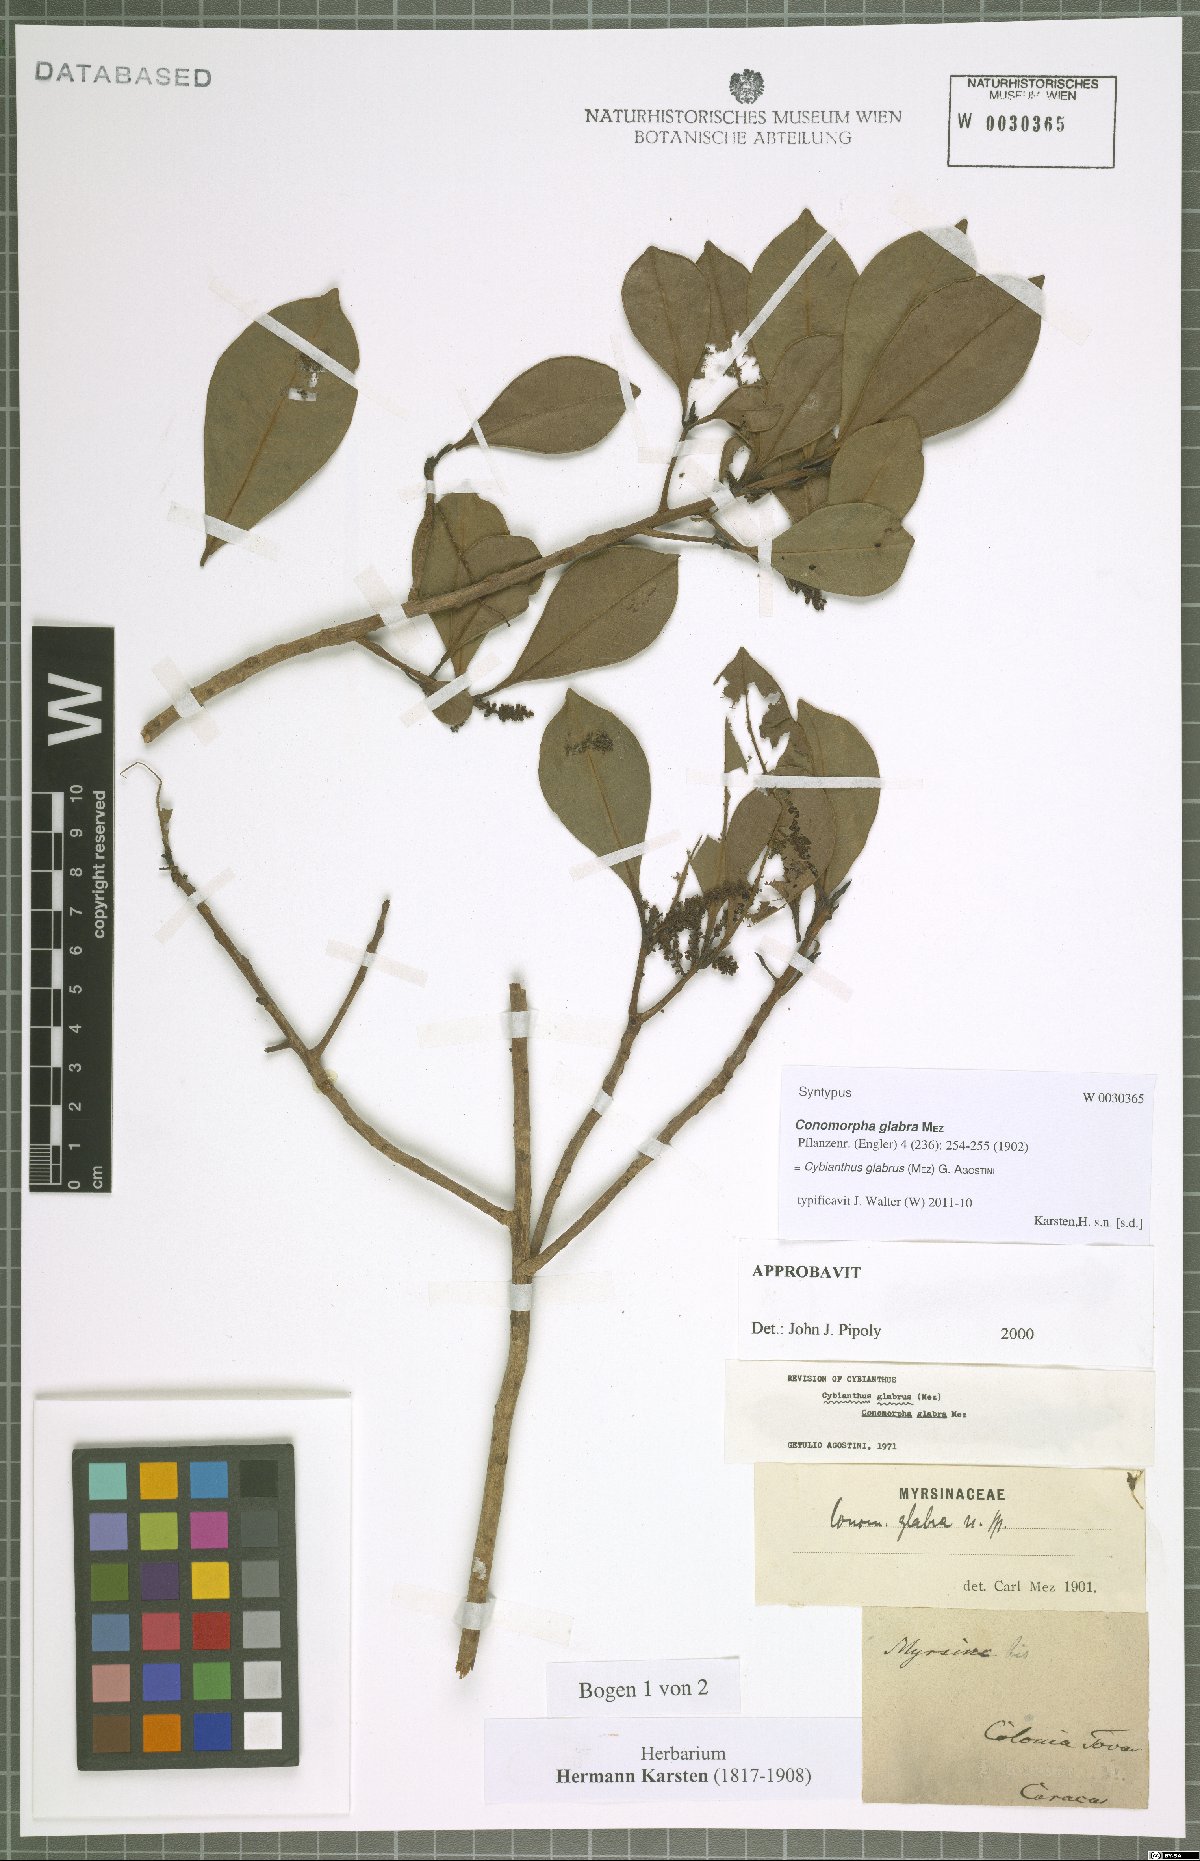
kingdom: Plantae
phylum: Tracheophyta
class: Magnoliopsida
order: Ericales
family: Primulaceae
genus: Cybianthus
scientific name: Cybianthus glabrus
